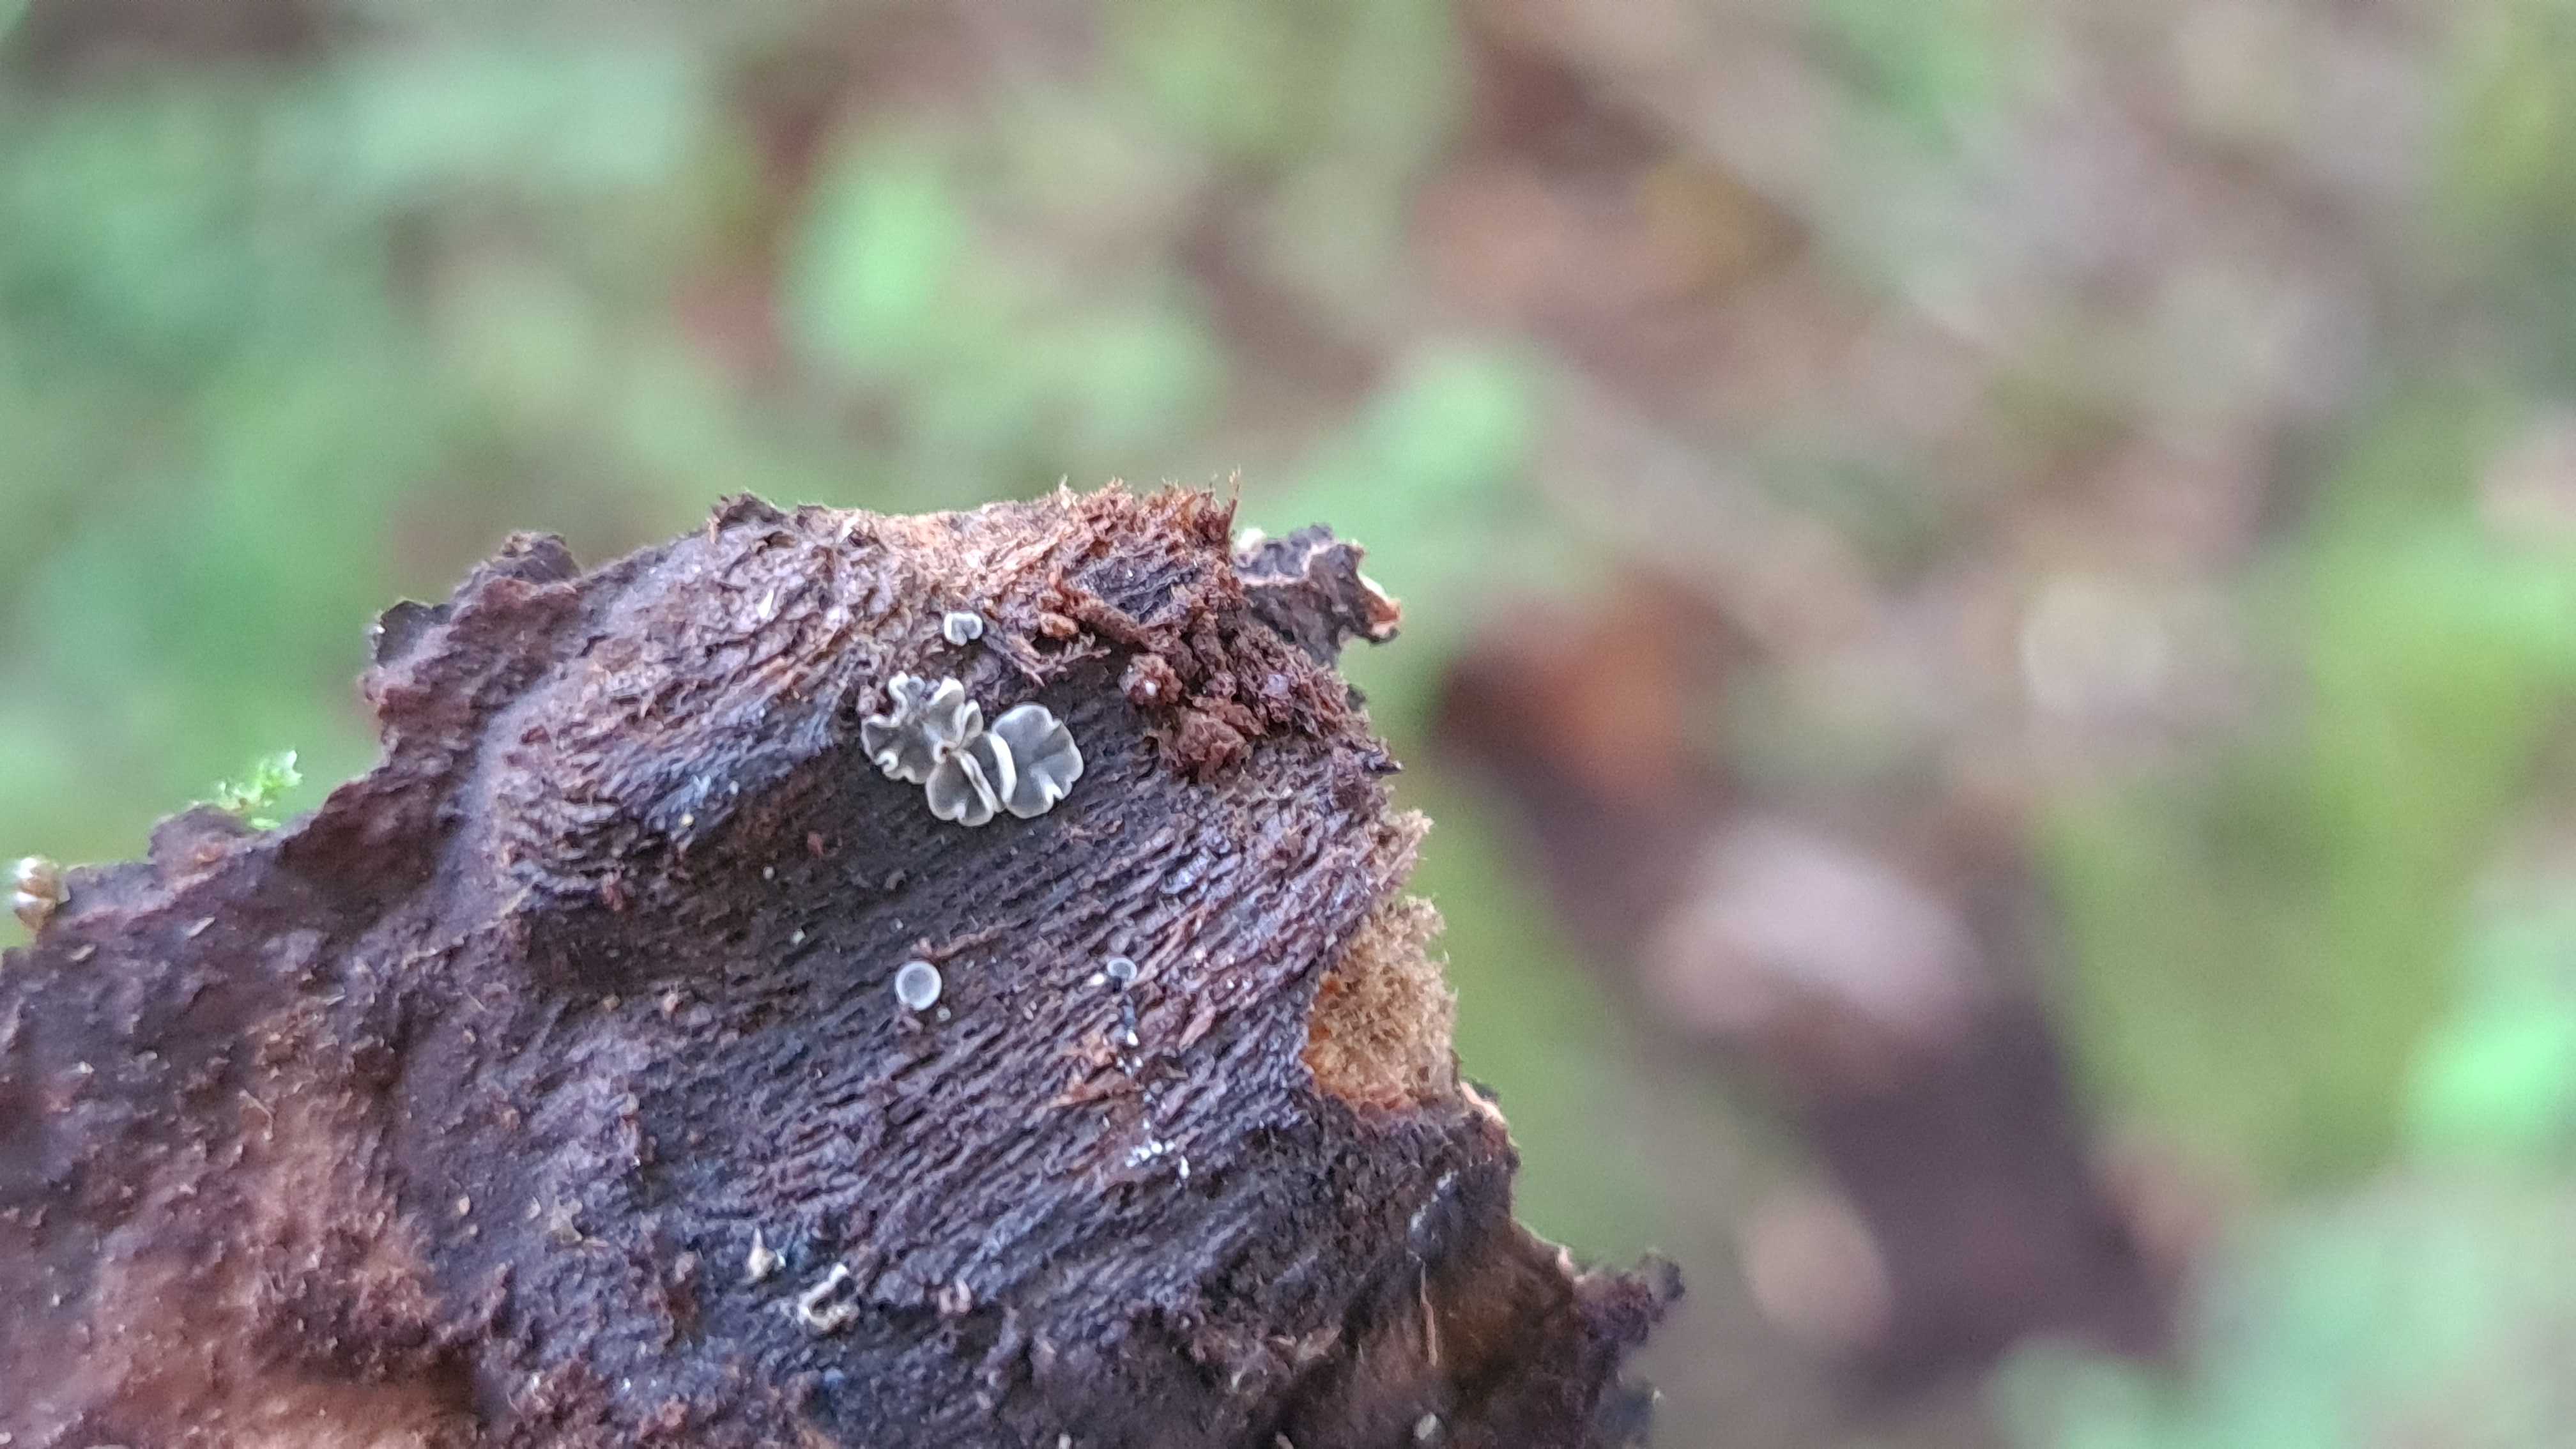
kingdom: Fungi
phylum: Ascomycota
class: Leotiomycetes
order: Helotiales
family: Mollisiaceae
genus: Mollisia
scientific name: Mollisia cinerea
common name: almindelig gråskive
